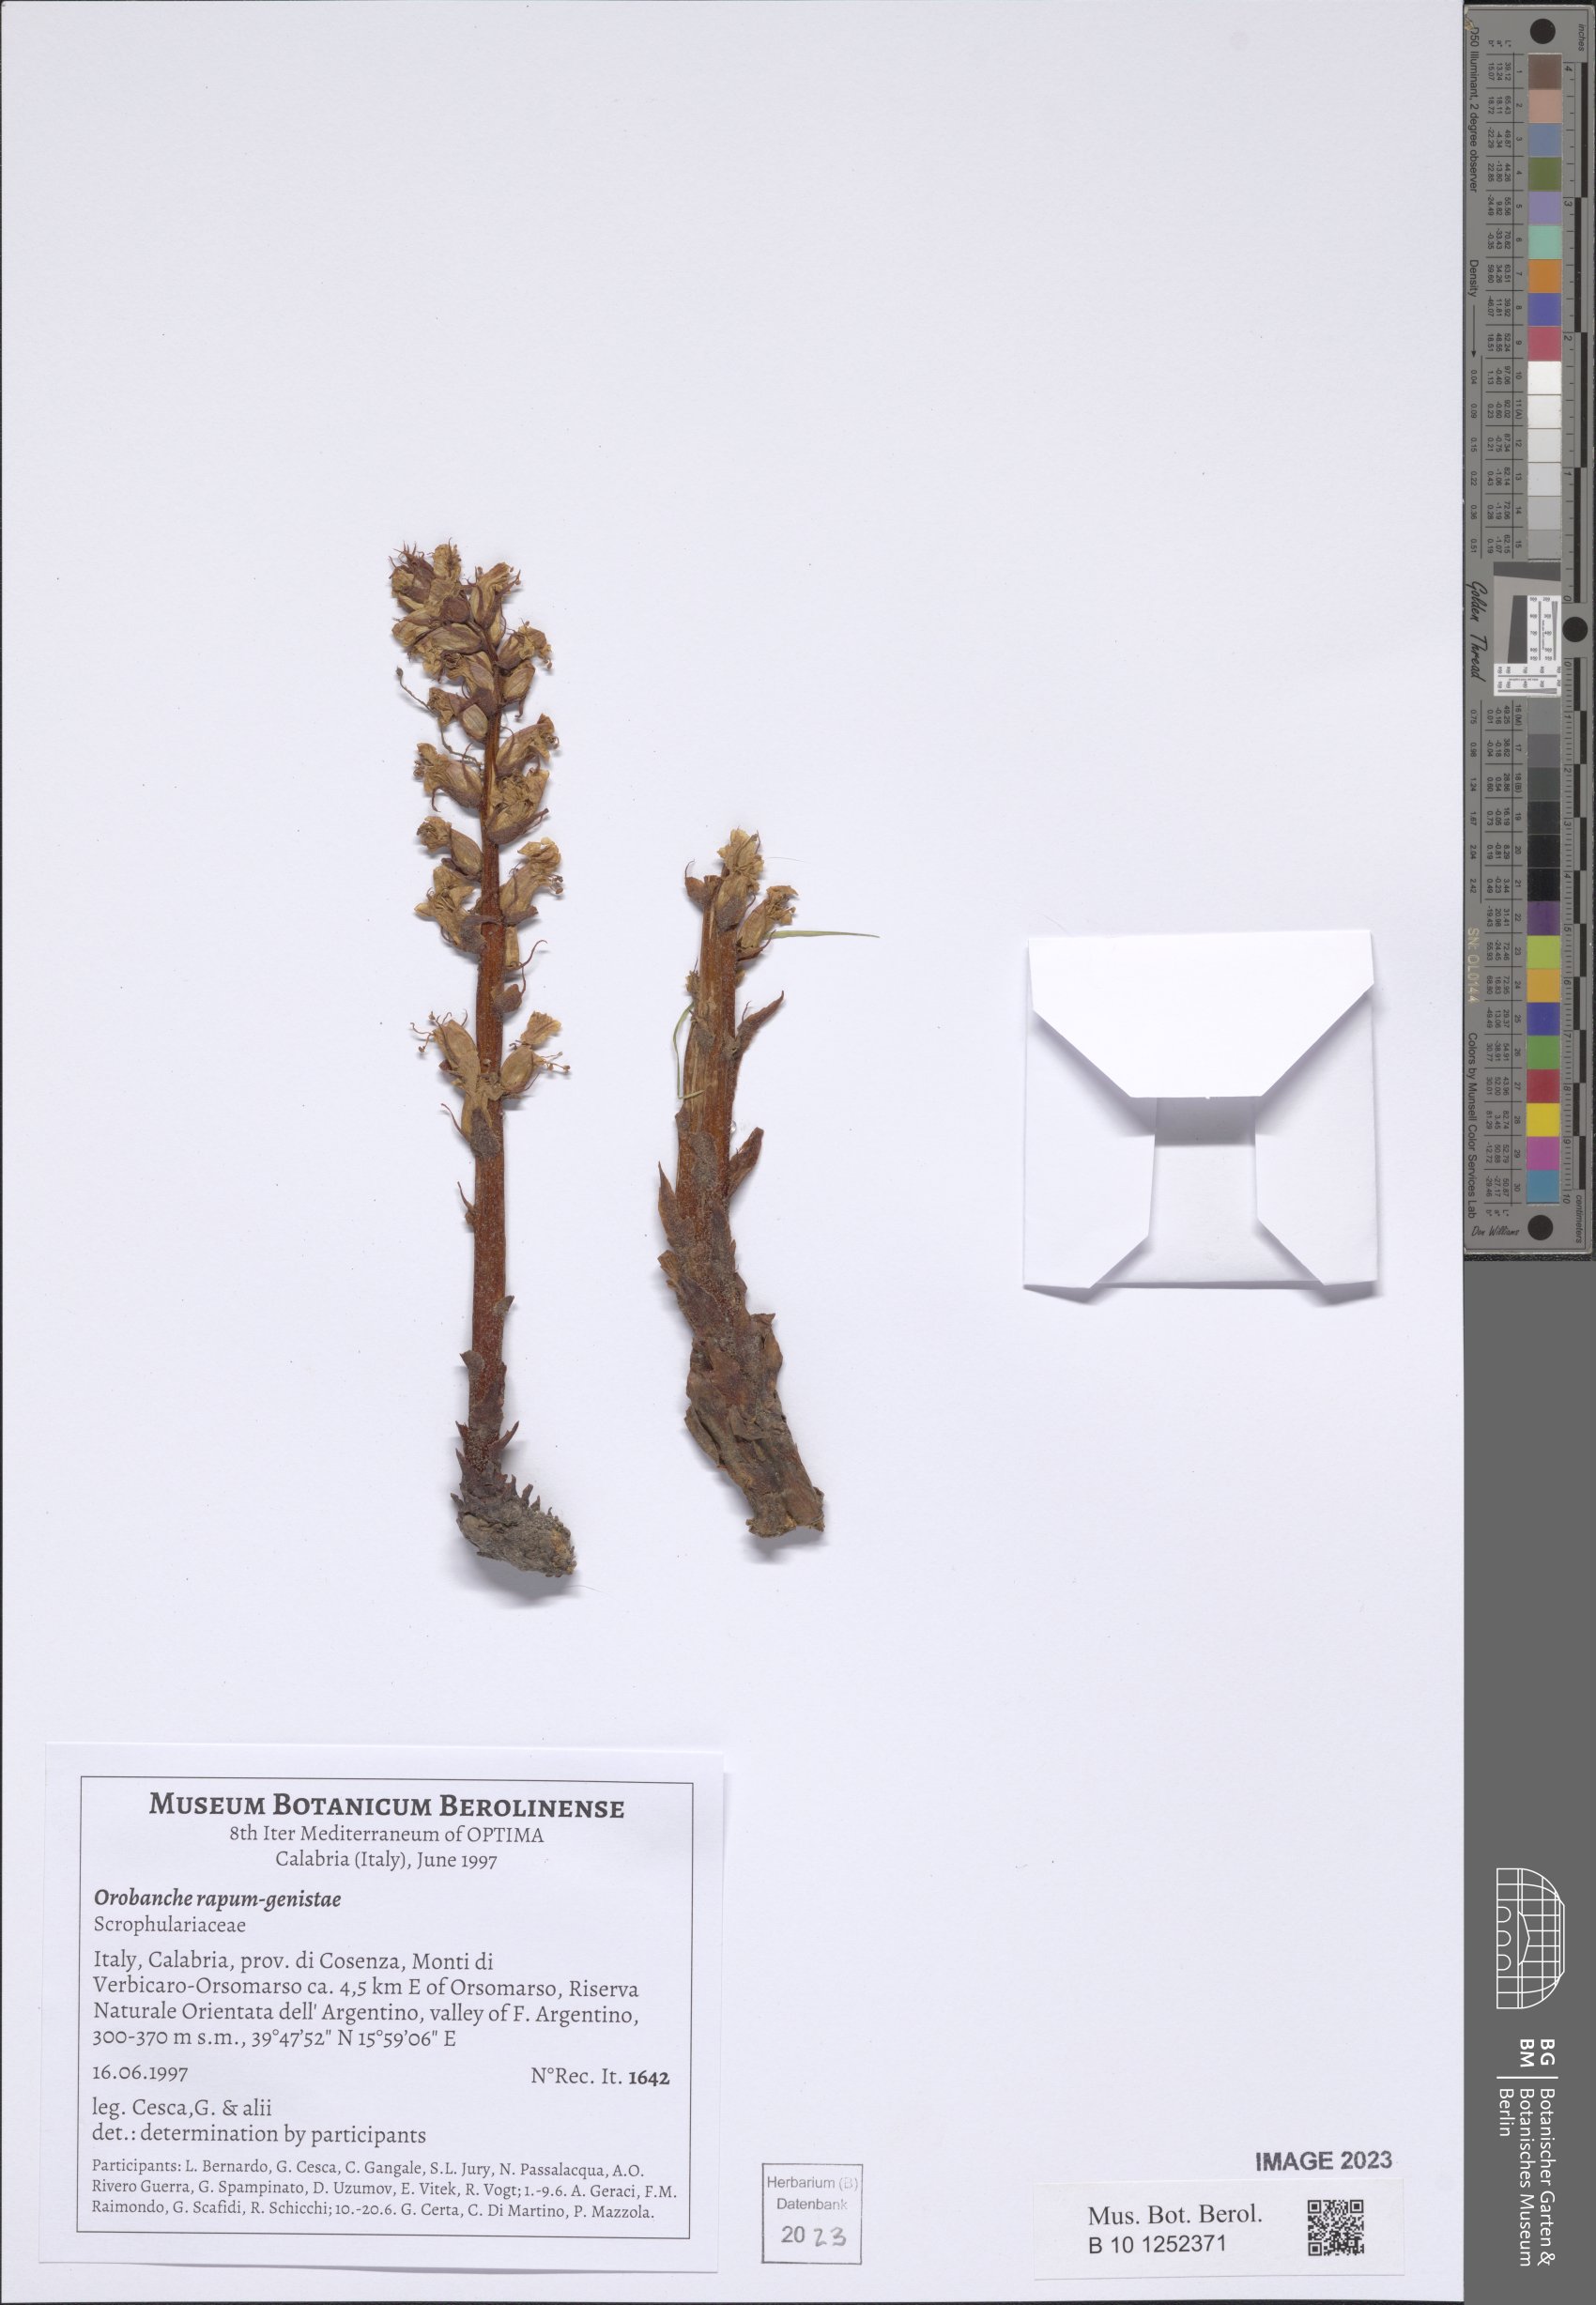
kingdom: Plantae
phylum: Tracheophyta
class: Magnoliopsida
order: Lamiales
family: Orobanchaceae
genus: Orobanche
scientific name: Orobanche rapum-genistae
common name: Greater broomrape
